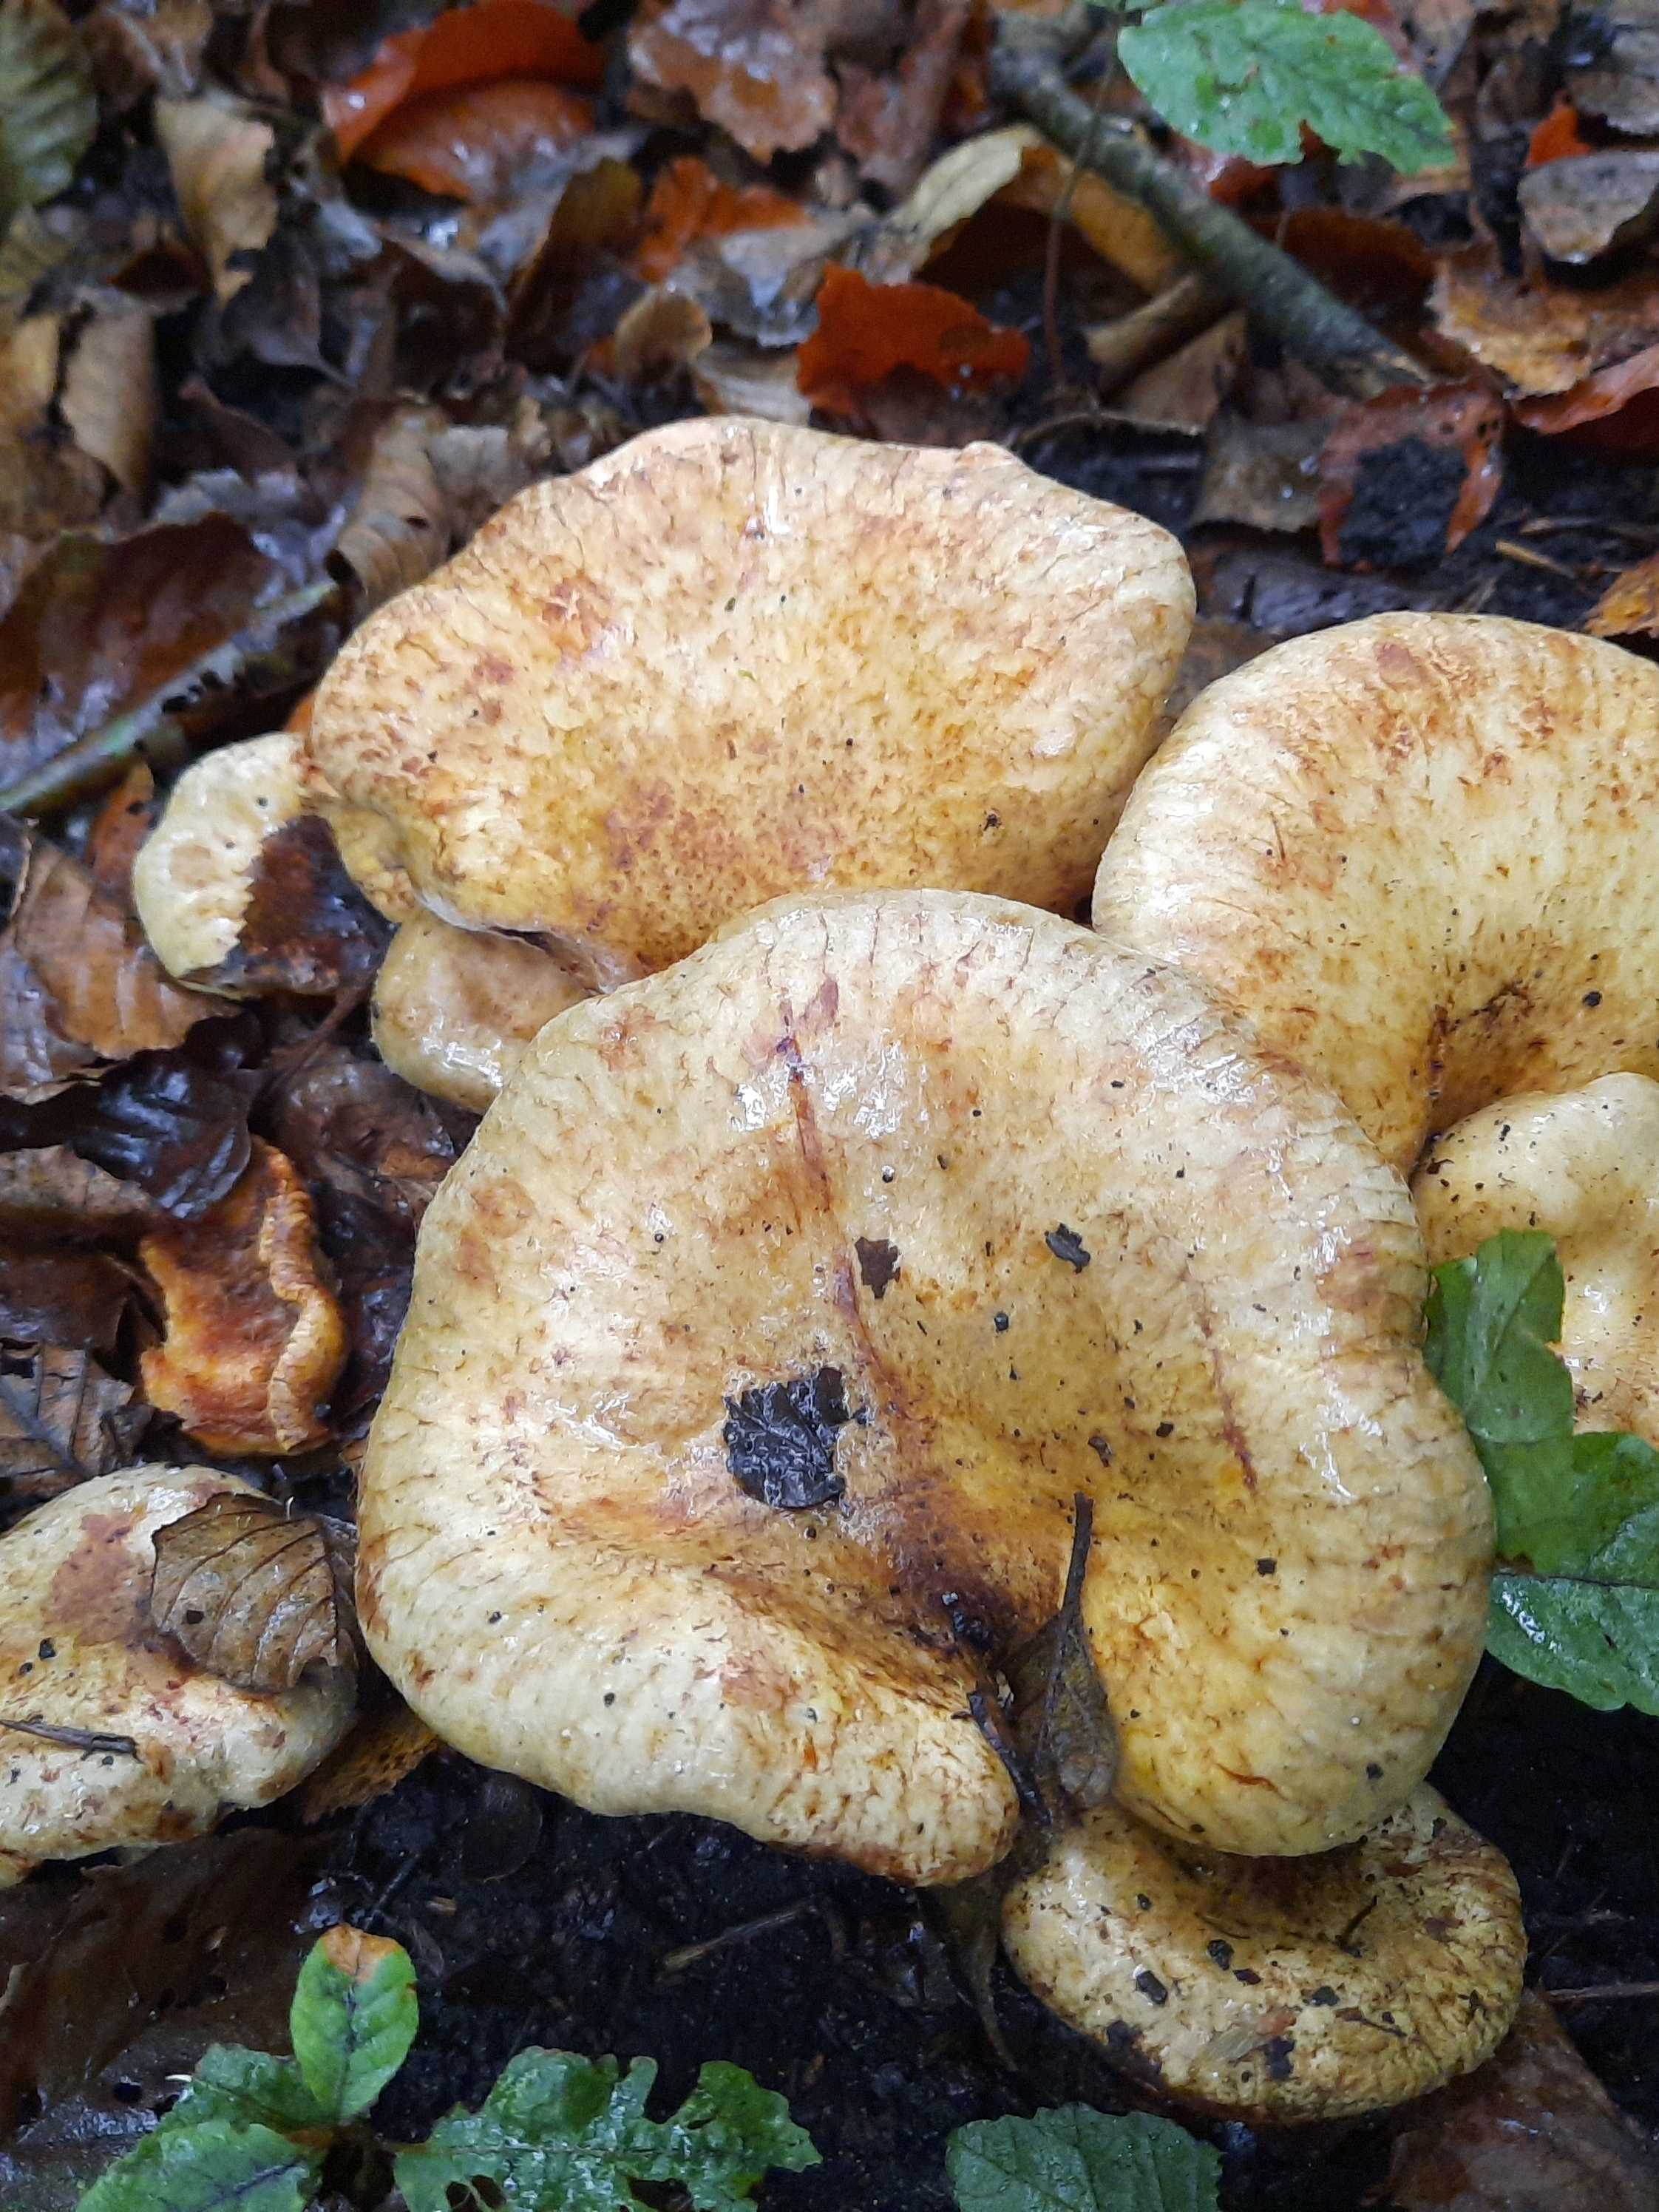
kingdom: Fungi
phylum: Basidiomycota
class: Agaricomycetes
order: Boletales
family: Paxillaceae
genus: Paxillus
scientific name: Paxillus rubicundulus
